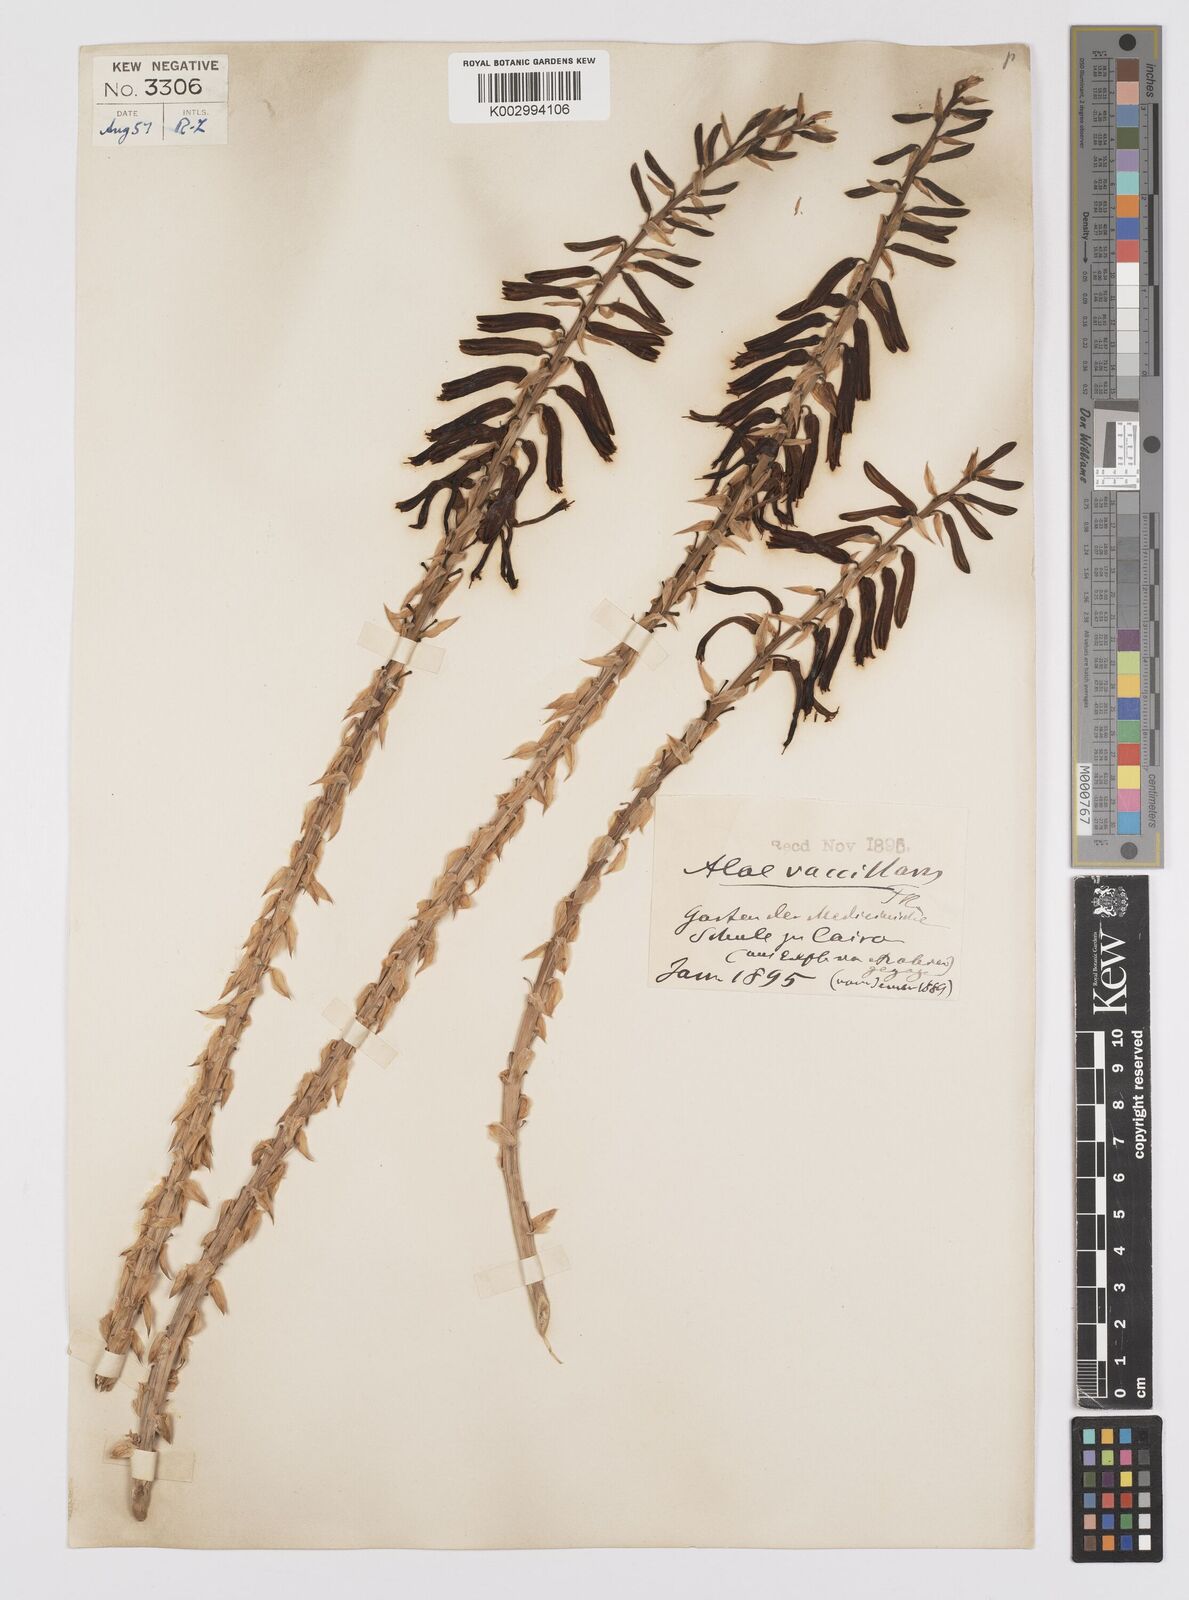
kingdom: Plantae
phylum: Tracheophyta
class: Liliopsida
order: Asparagales
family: Asphodelaceae
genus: Aloe
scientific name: Aloe vacillans
